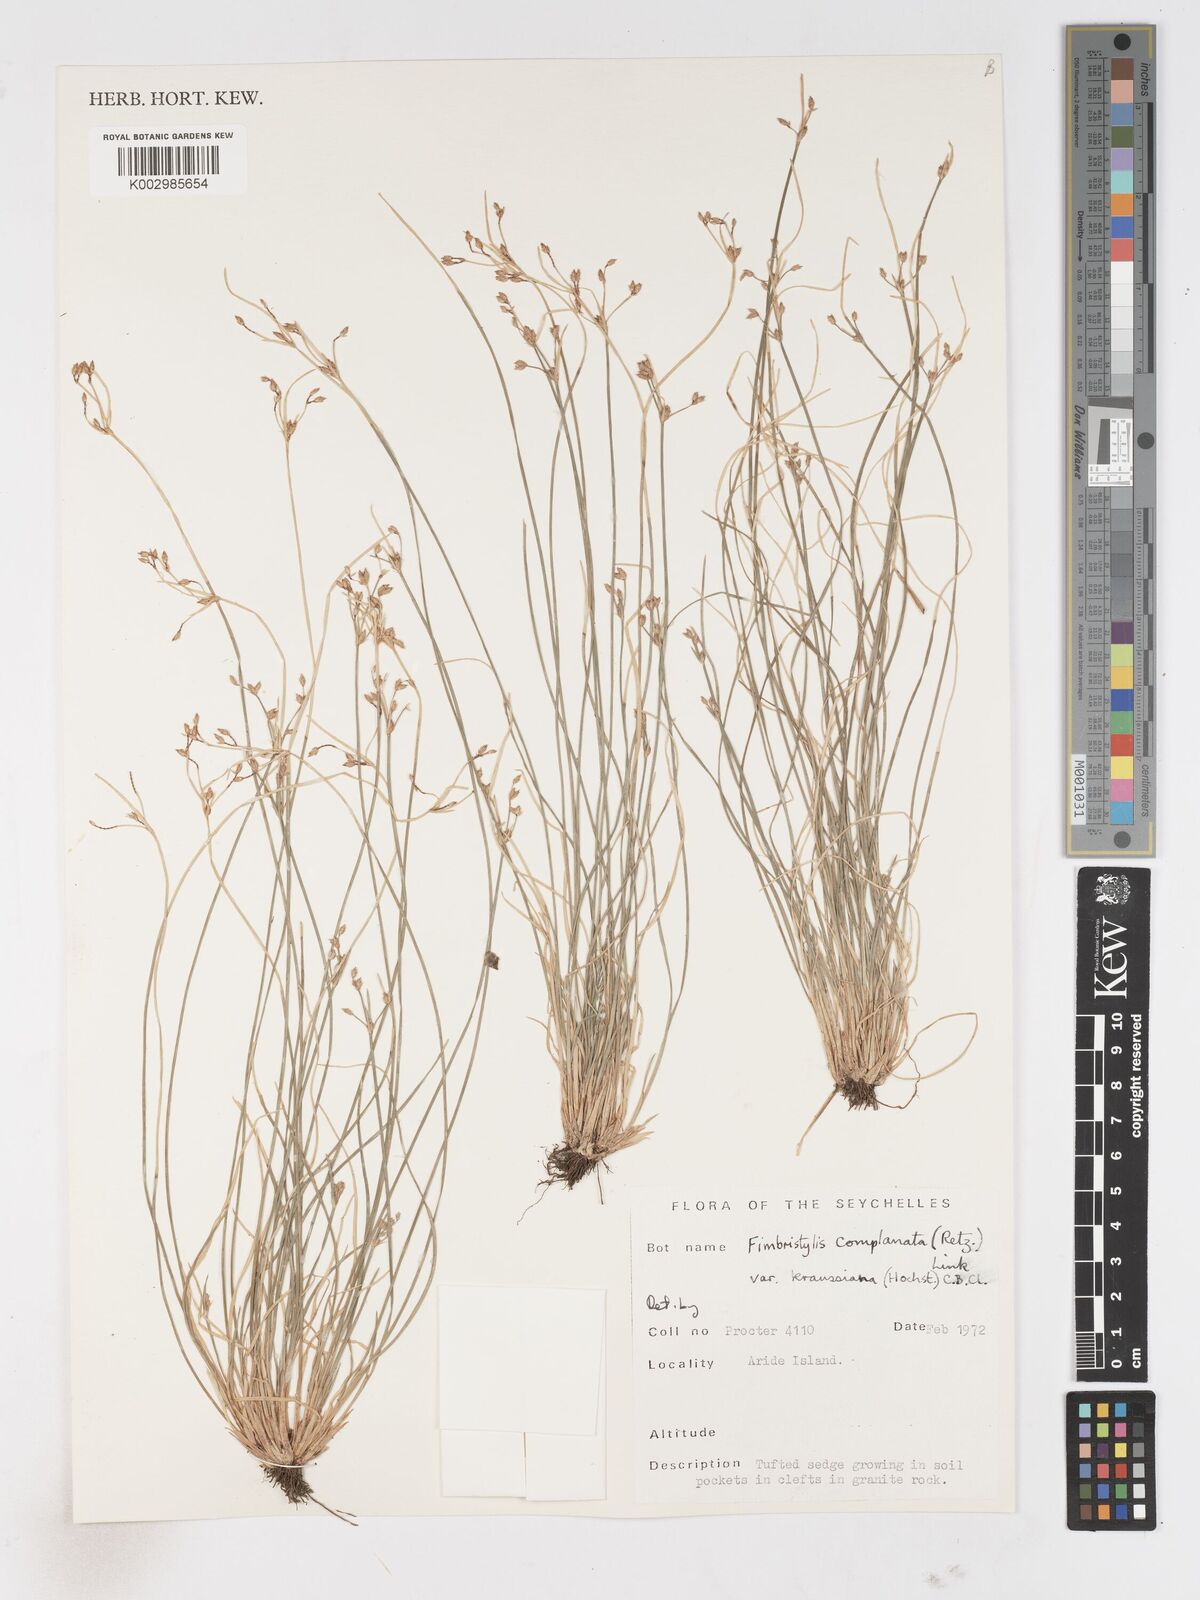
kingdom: Plantae
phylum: Tracheophyta
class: Liliopsida
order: Poales
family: Cyperaceae
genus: Fimbristylis
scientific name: Fimbristylis complanata
